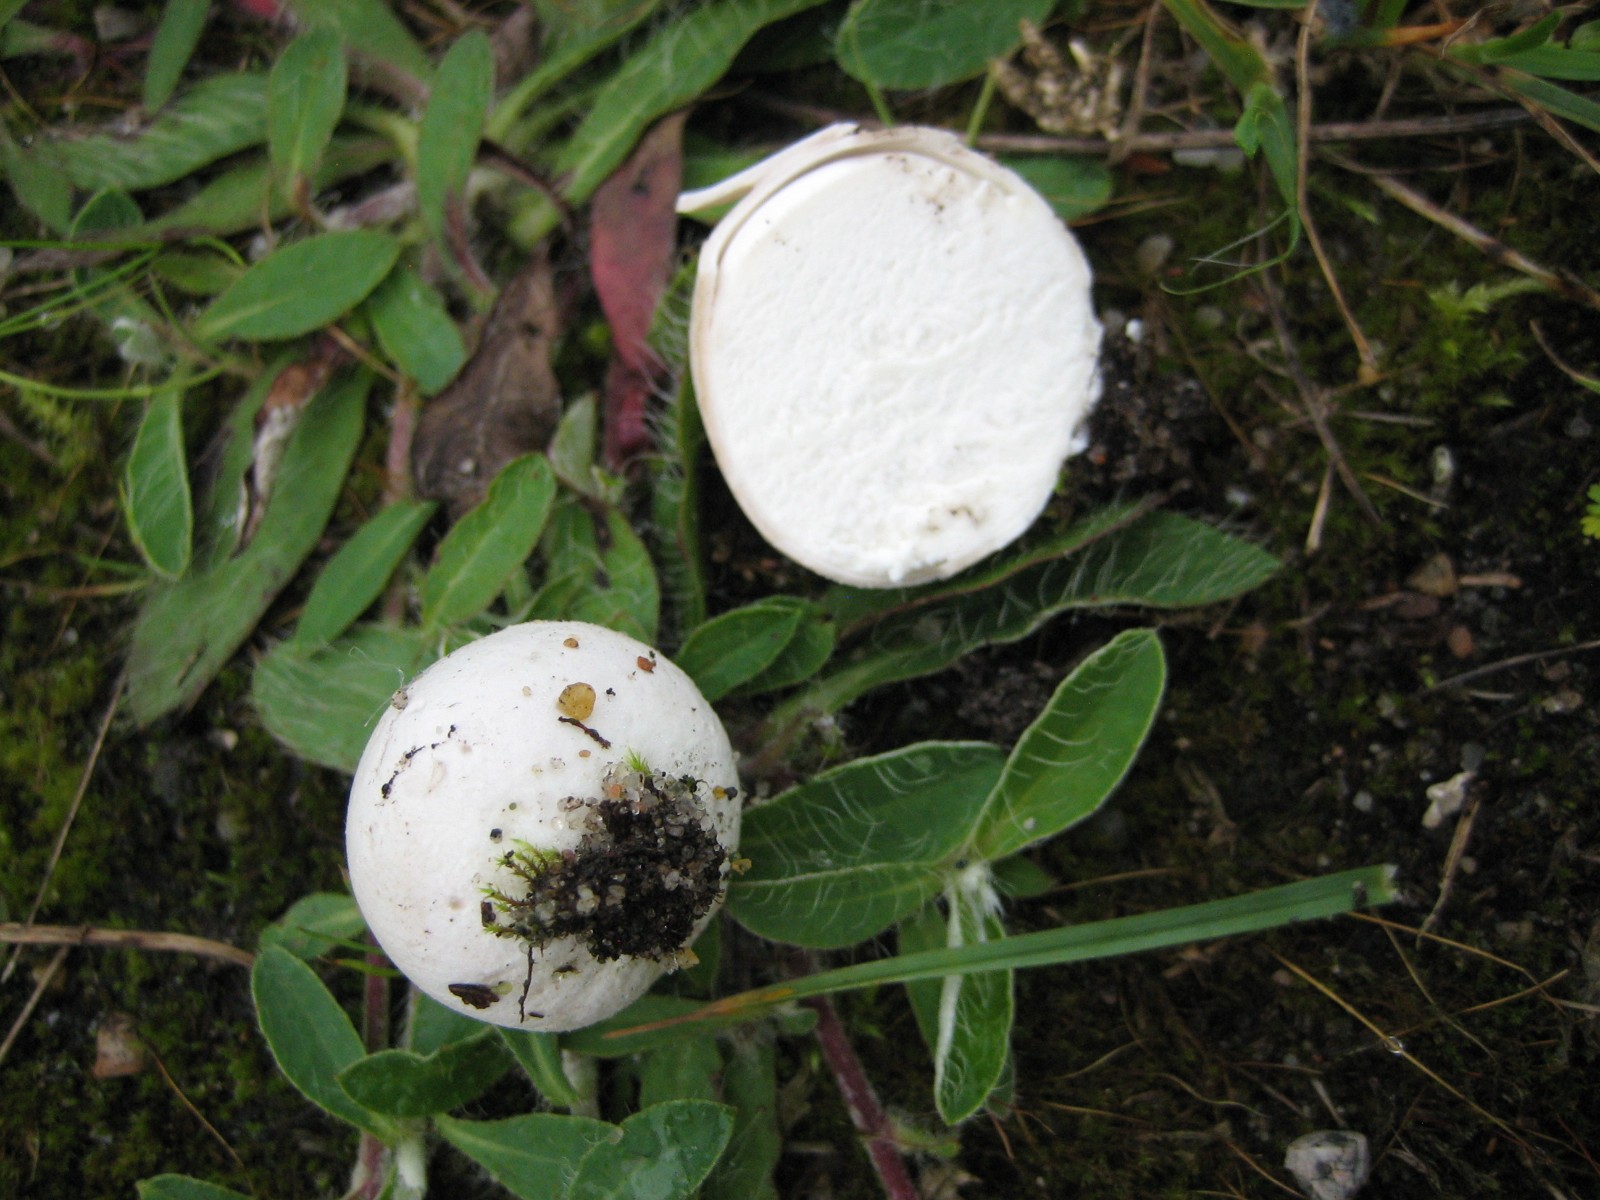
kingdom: Fungi
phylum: Basidiomycota
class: Agaricomycetes
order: Agaricales
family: Lycoperdaceae
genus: Bovista
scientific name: Bovista
